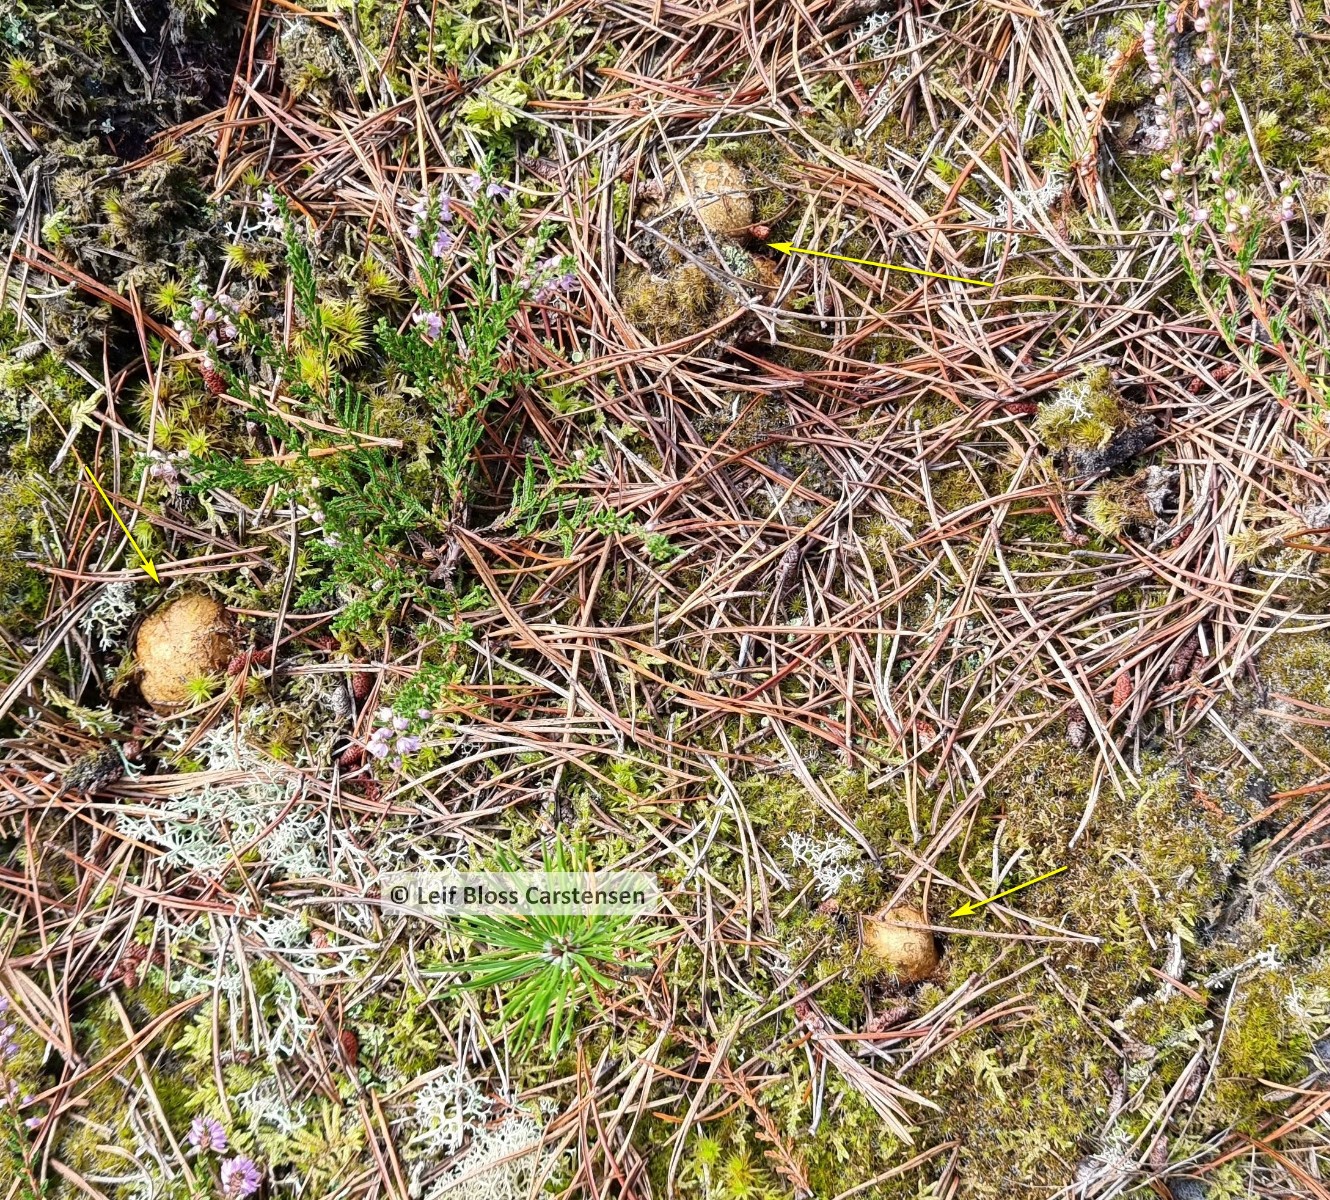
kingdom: Fungi
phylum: Basidiomycota
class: Agaricomycetes
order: Boletales
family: Rhizopogonaceae
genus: Rhizopogon
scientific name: Rhizopogon obtextus
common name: gul skægtrøffel
